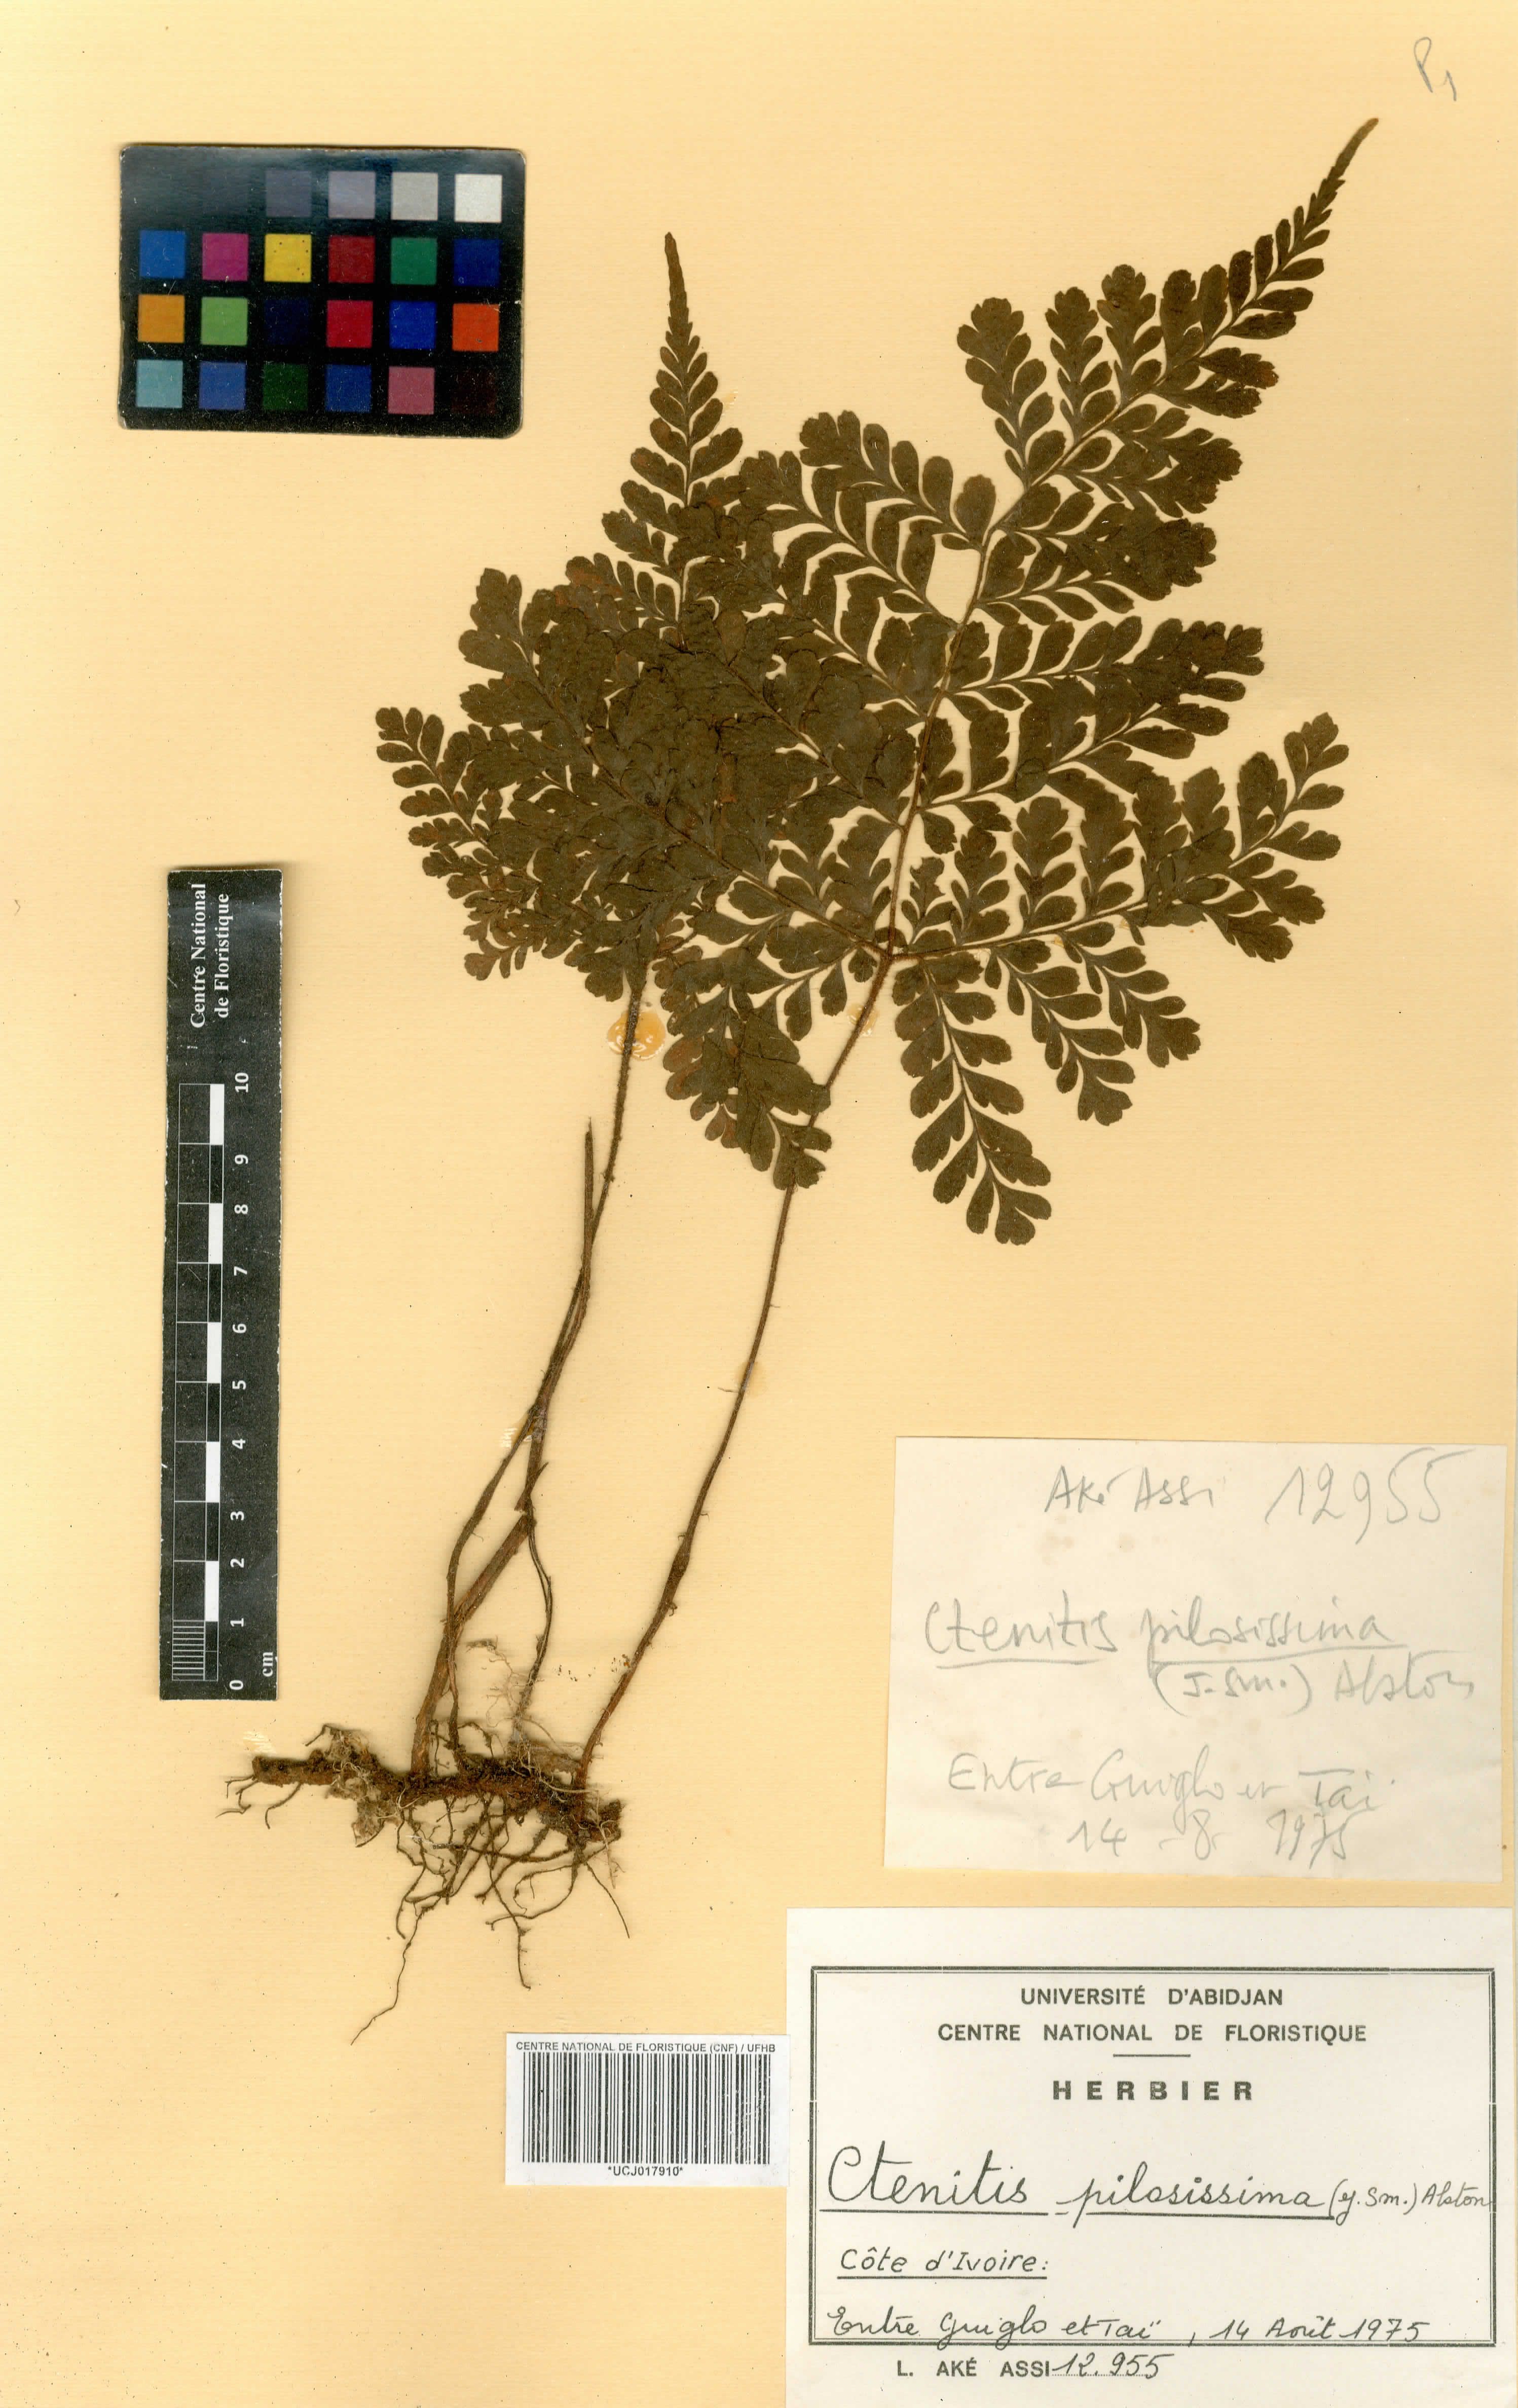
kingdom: Plantae
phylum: Tracheophyta
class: Polypodiopsida
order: Polypodiales
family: Tectariaceae
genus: Triplophyllum
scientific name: Triplophyllum pilosissimum
